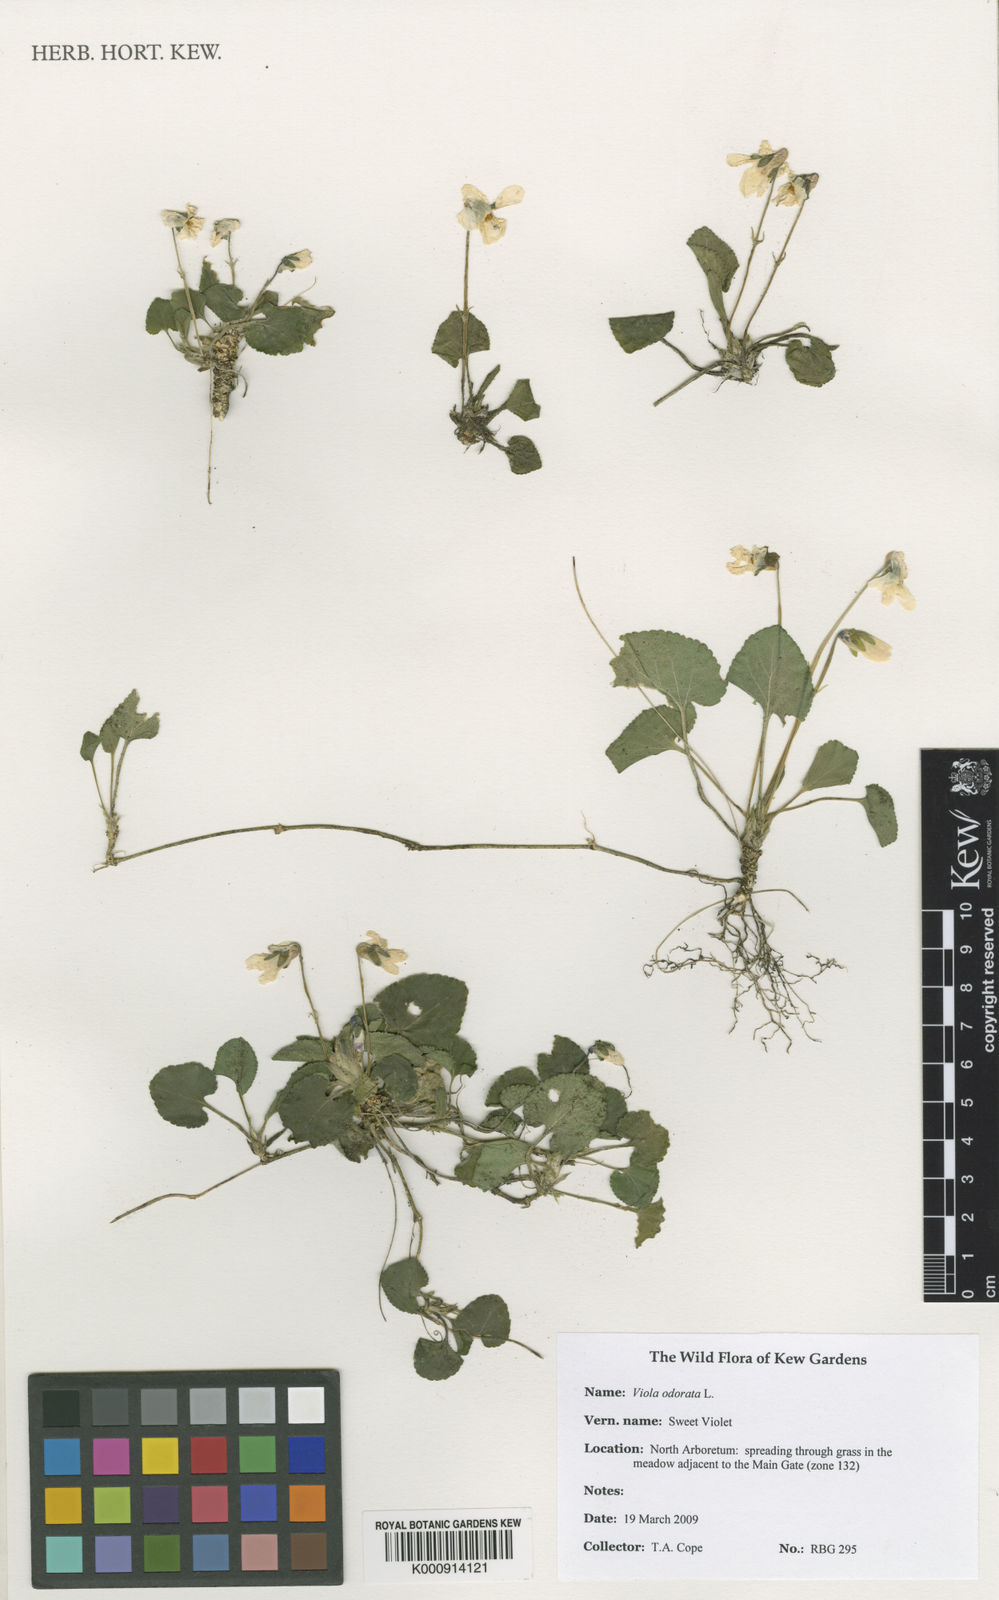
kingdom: Plantae
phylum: Tracheophyta
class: Magnoliopsida
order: Malpighiales
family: Violaceae
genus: Viola
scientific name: Viola odorata
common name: Sweet violet
